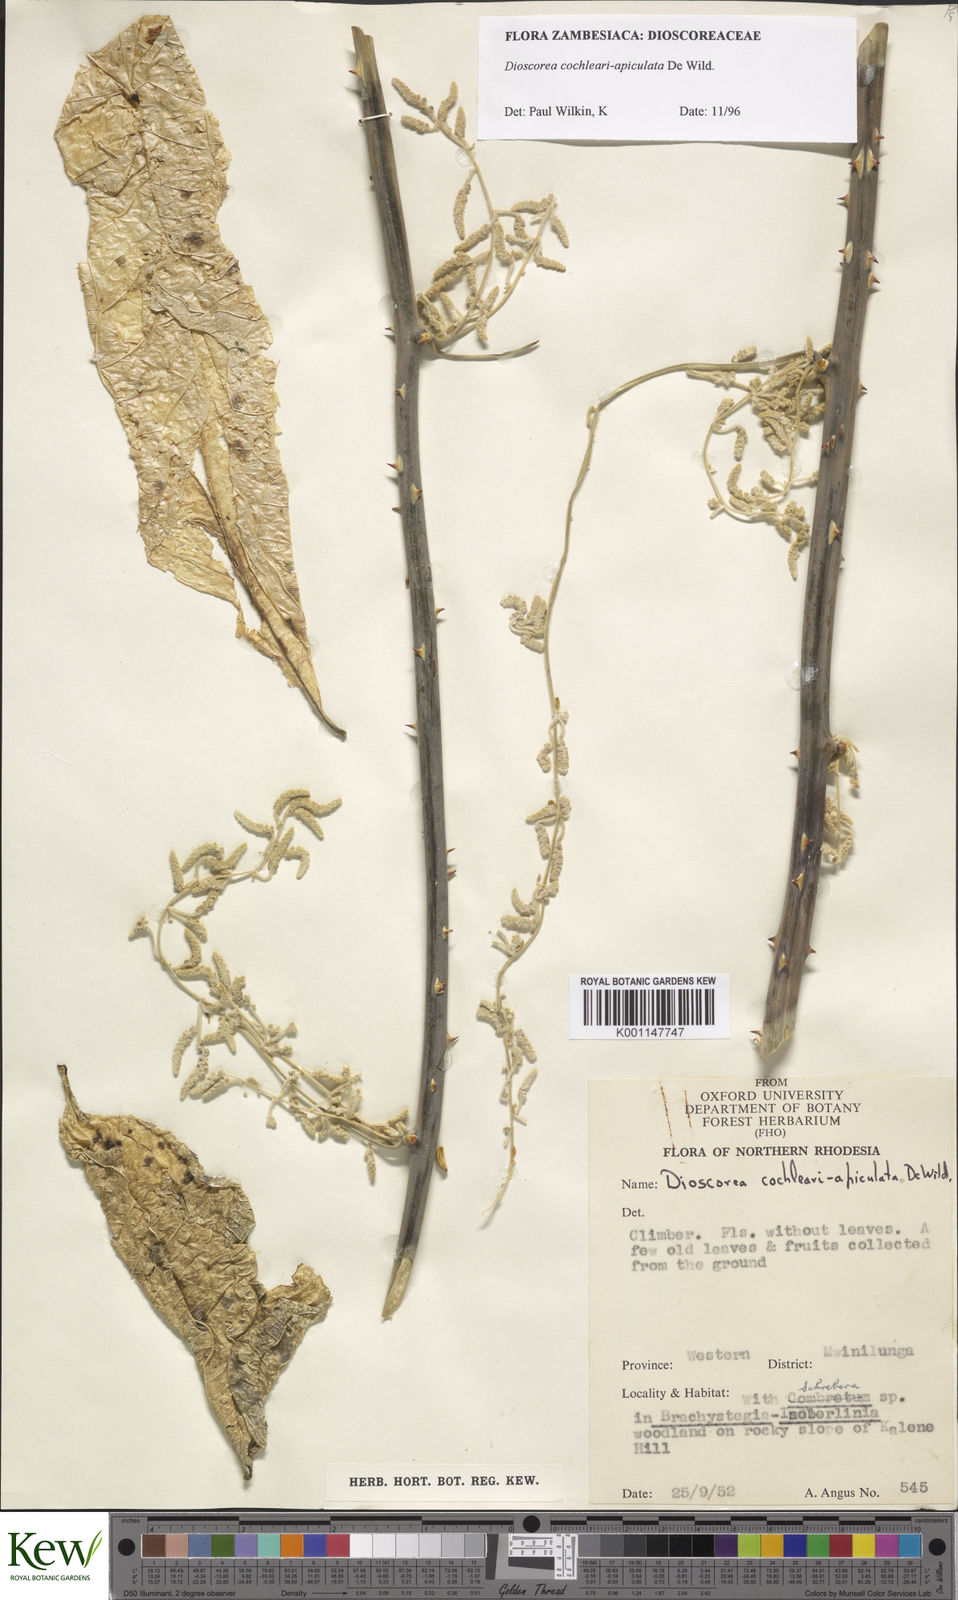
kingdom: Plantae
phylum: Tracheophyta
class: Liliopsida
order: Dioscoreales
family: Dioscoreaceae
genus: Dioscorea
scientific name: Dioscorea cochleariapiculata
